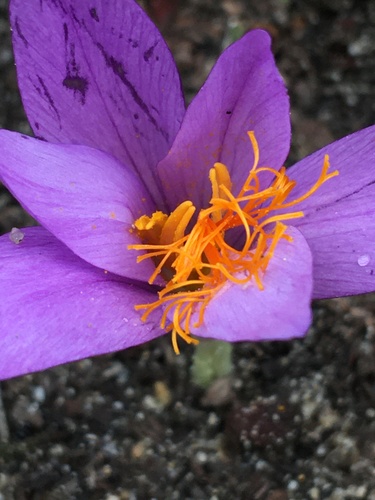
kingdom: Plantae
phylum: Tracheophyta
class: Liliopsida
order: Asparagales
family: Iridaceae
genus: Crocus
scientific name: Crocus serotinus
